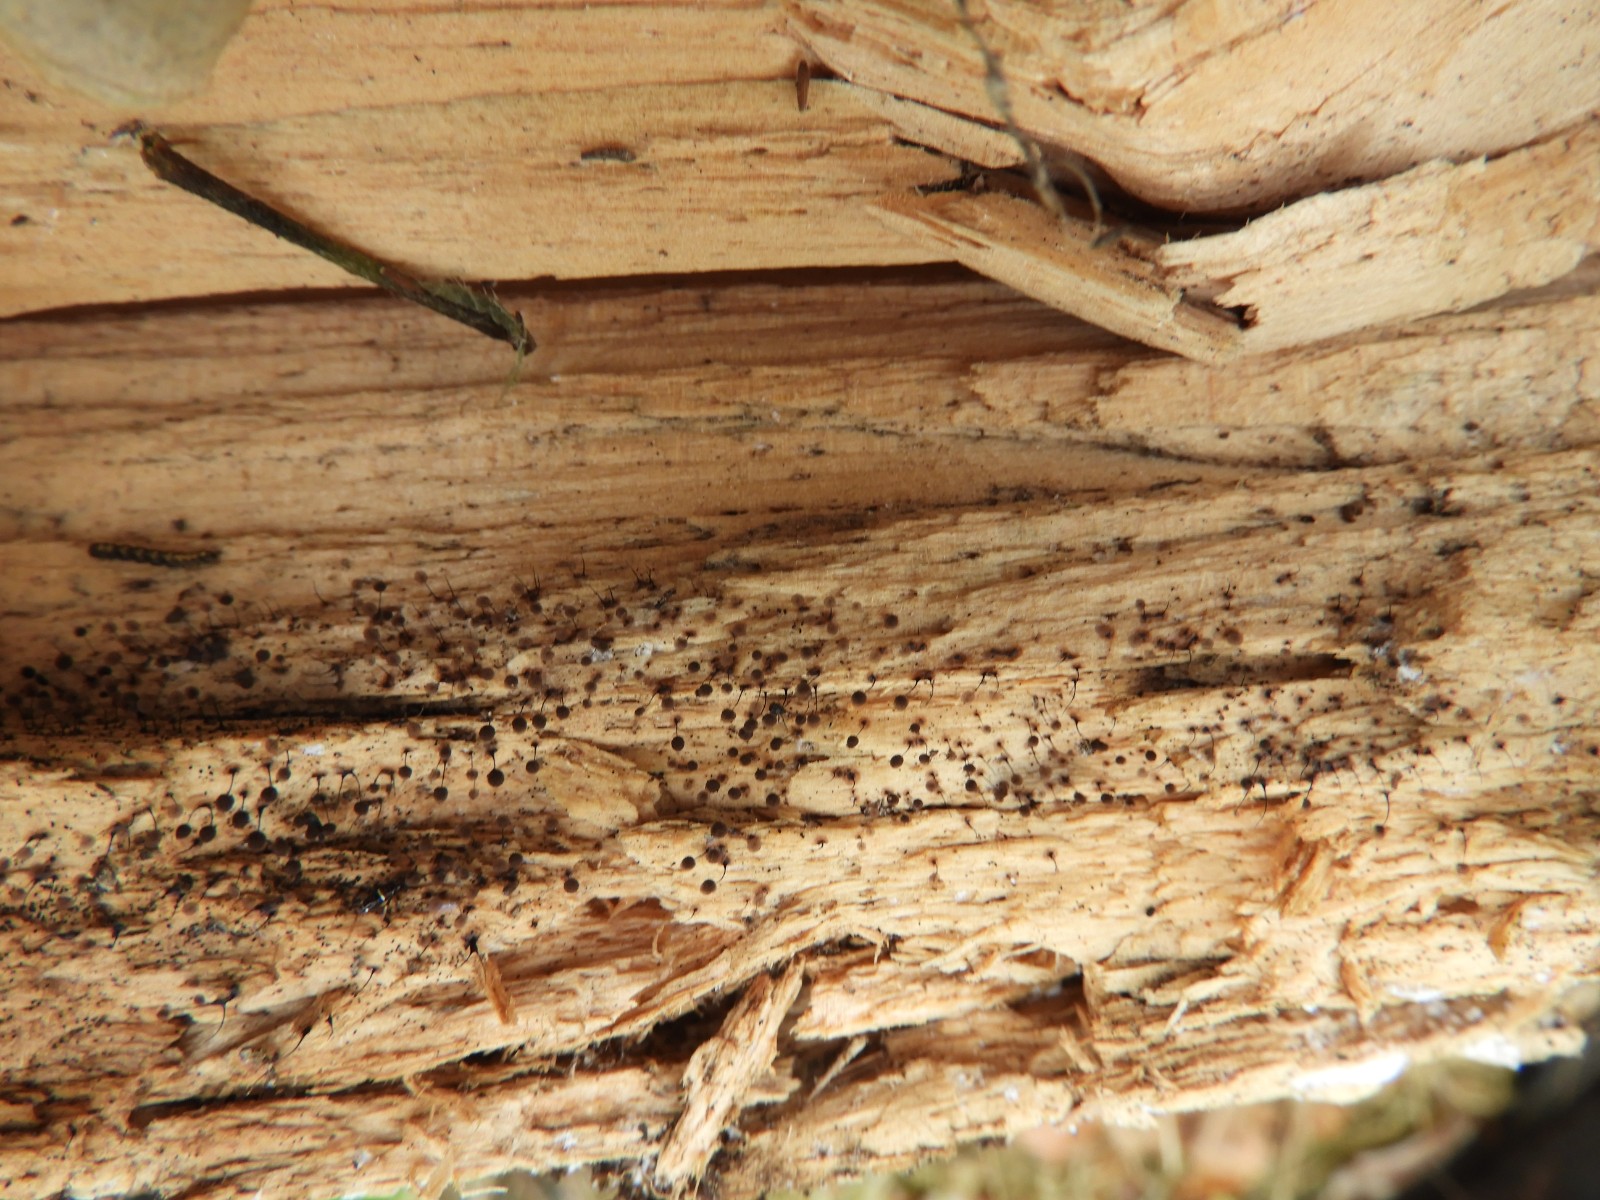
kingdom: Protozoa
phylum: Mycetozoa
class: Myxomycetes
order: Stemonitidales
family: Stemonitidaceae
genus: Comatricha
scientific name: Comatricha nigra
